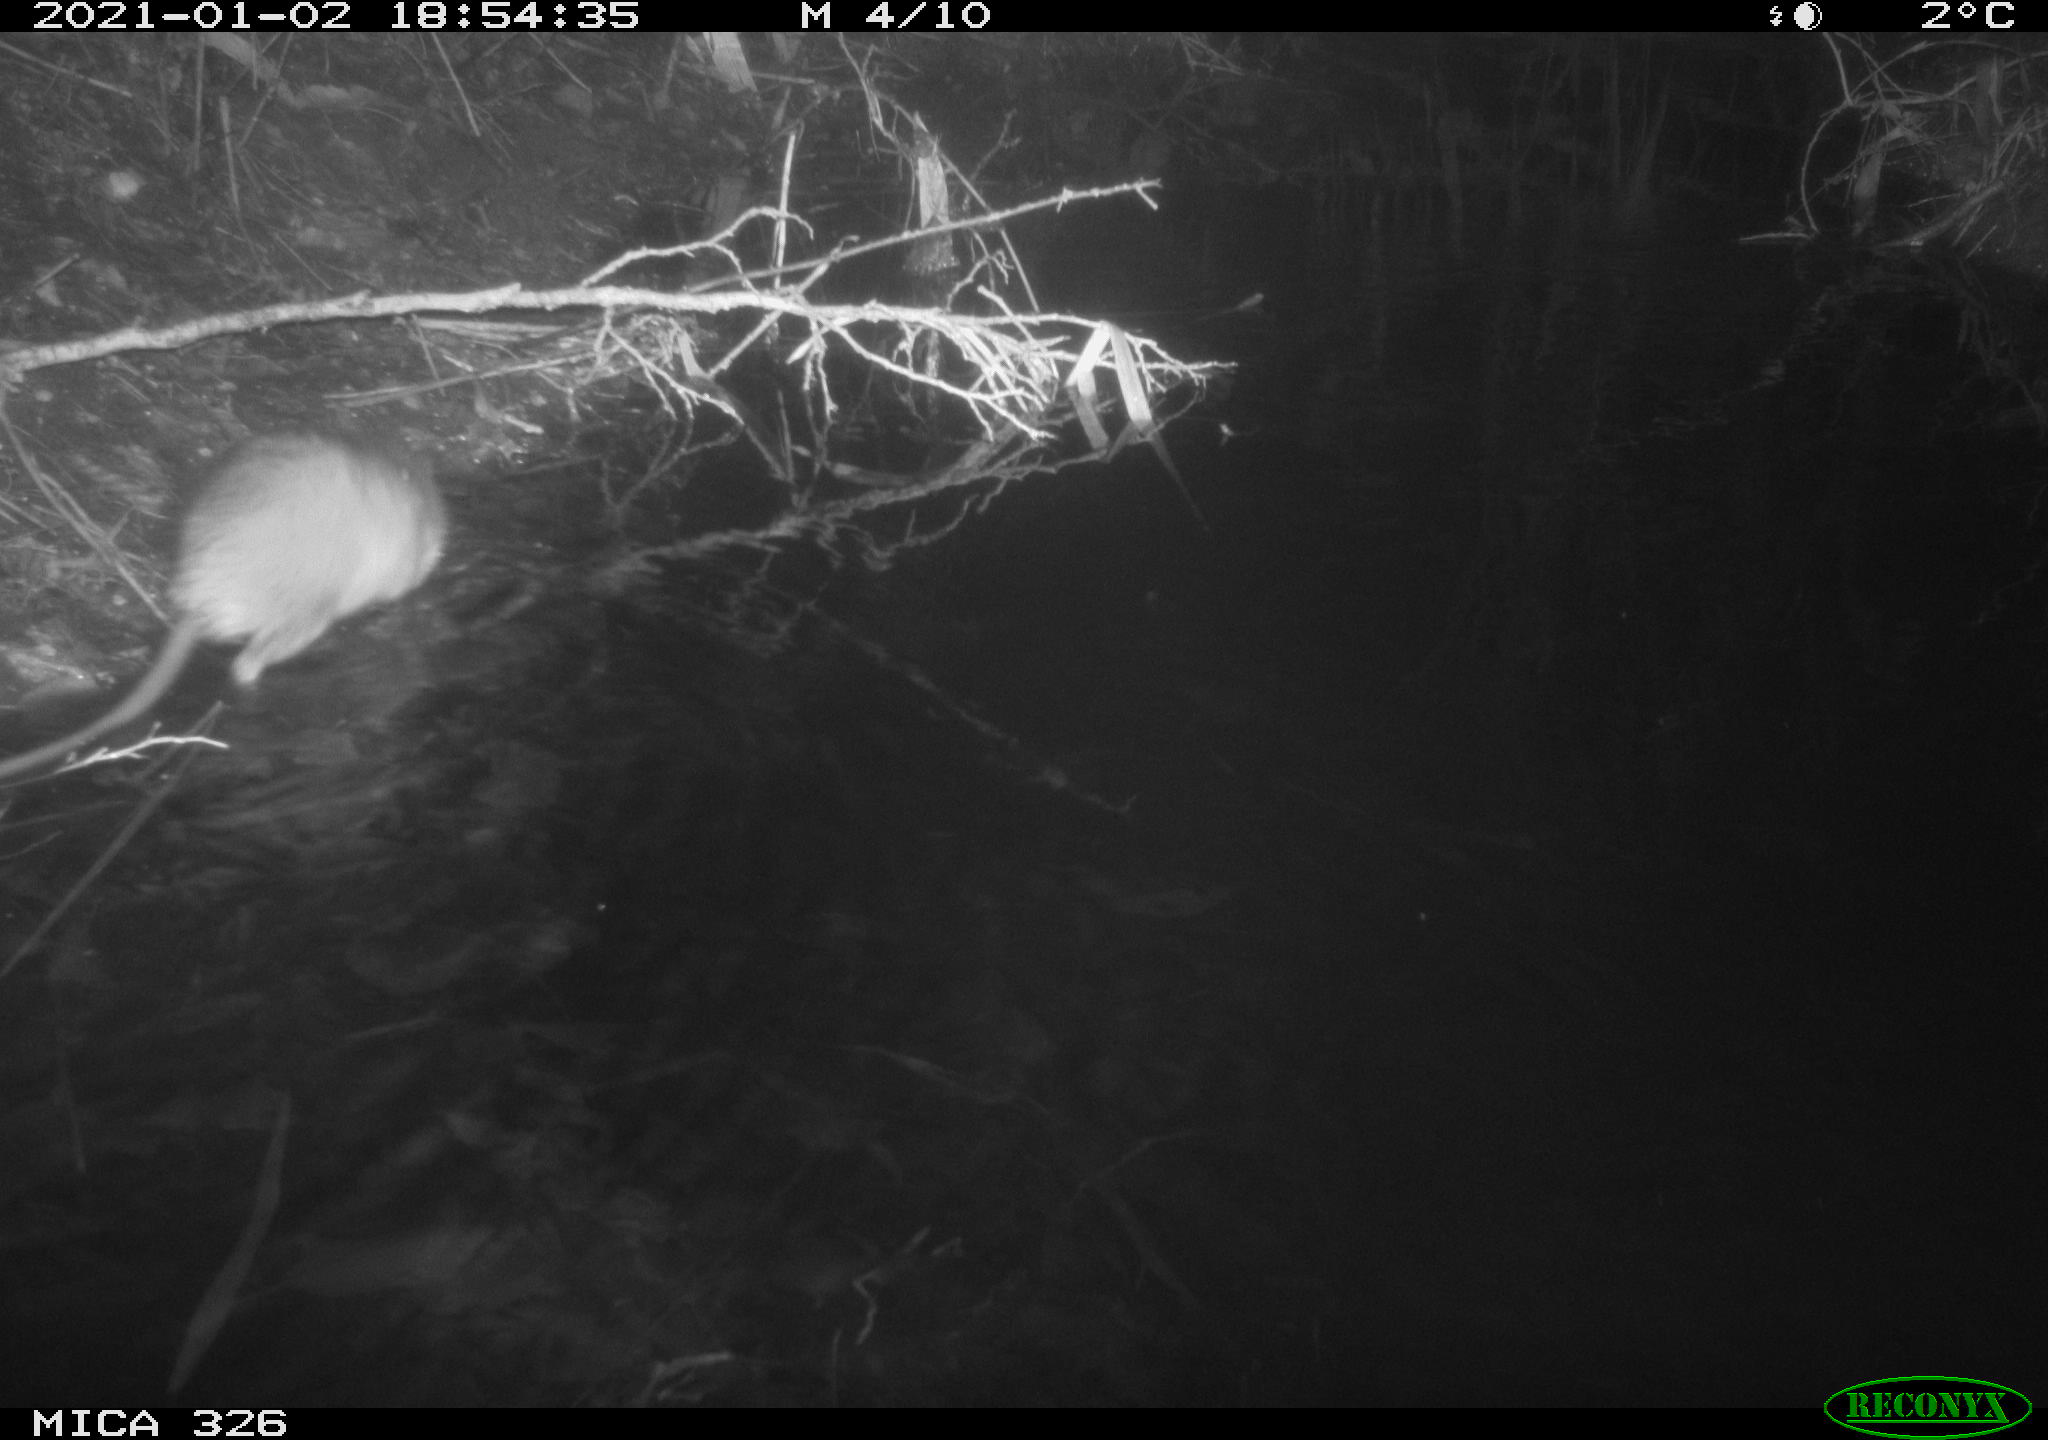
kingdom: Animalia
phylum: Chordata
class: Mammalia
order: Rodentia
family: Muridae
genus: Rattus
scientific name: Rattus norvegicus
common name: Brown rat
